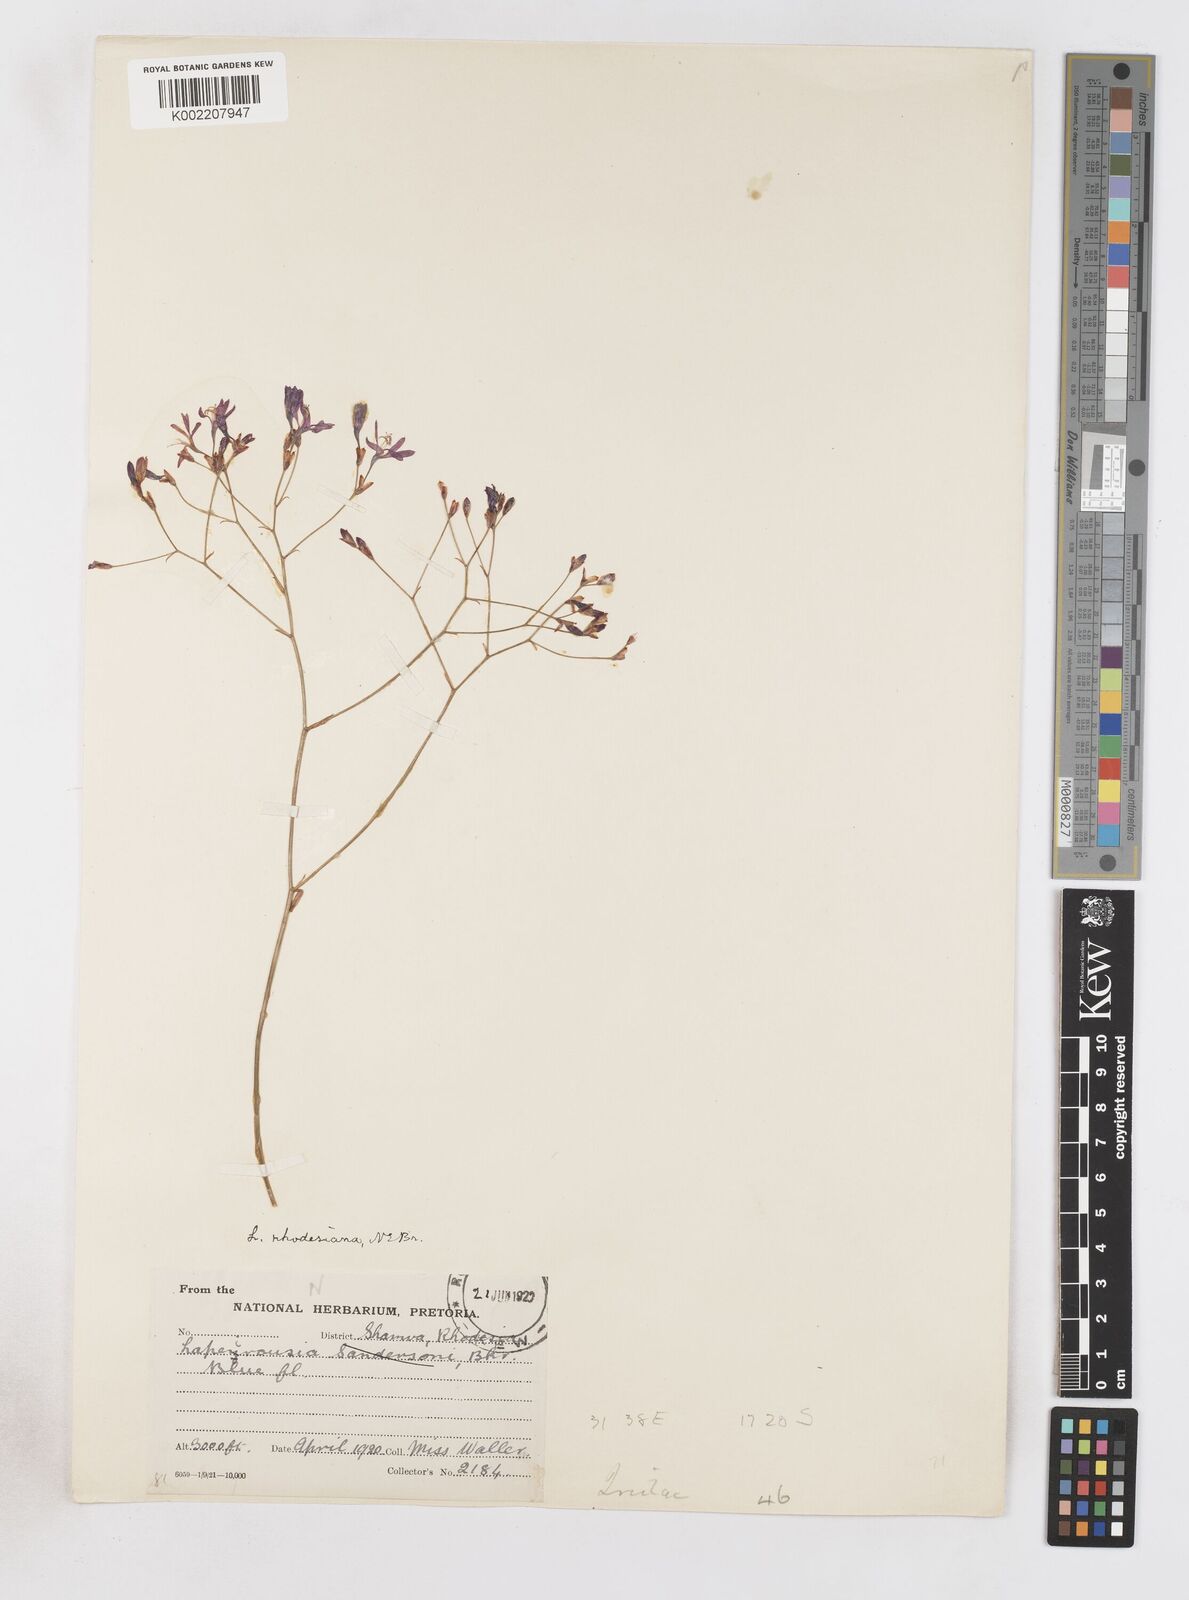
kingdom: Plantae
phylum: Tracheophyta
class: Liliopsida
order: Asparagales
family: Iridaceae
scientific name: Iridaceae
